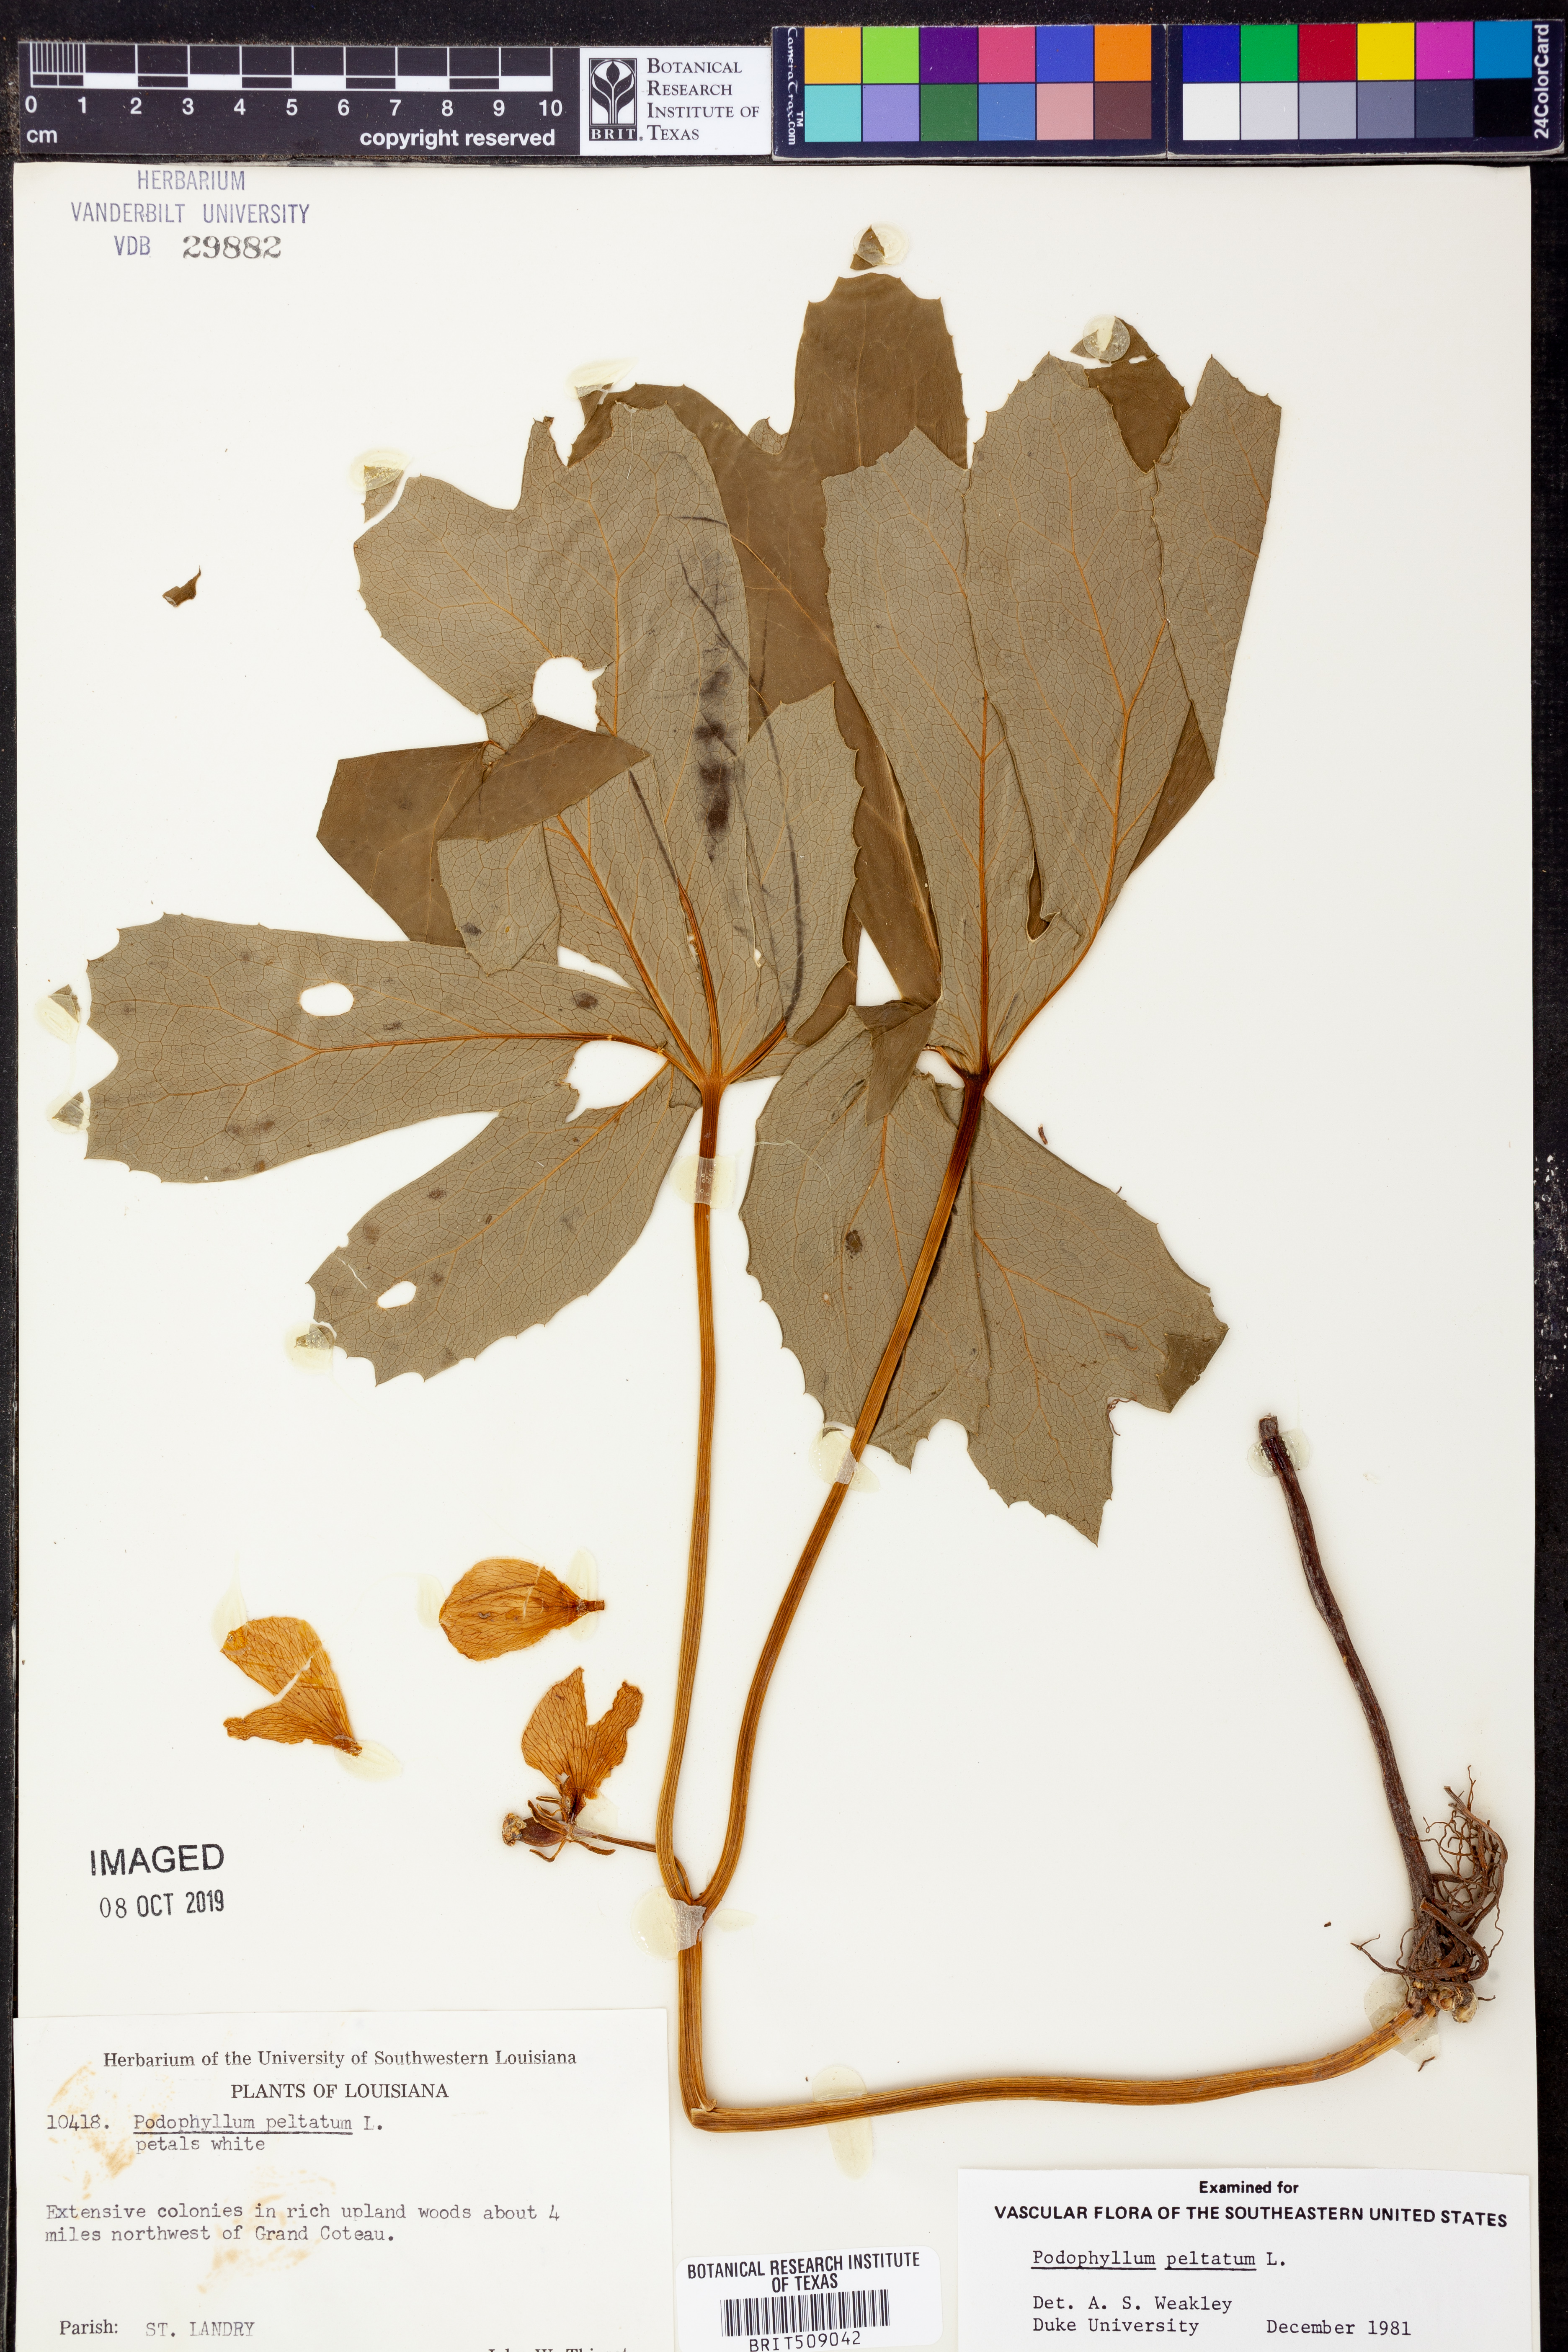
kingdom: Plantae
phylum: Tracheophyta
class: Magnoliopsida
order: Ranunculales
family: Berberidaceae
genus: Podophyllum
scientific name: Podophyllum peltatum
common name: Wild mandrake
